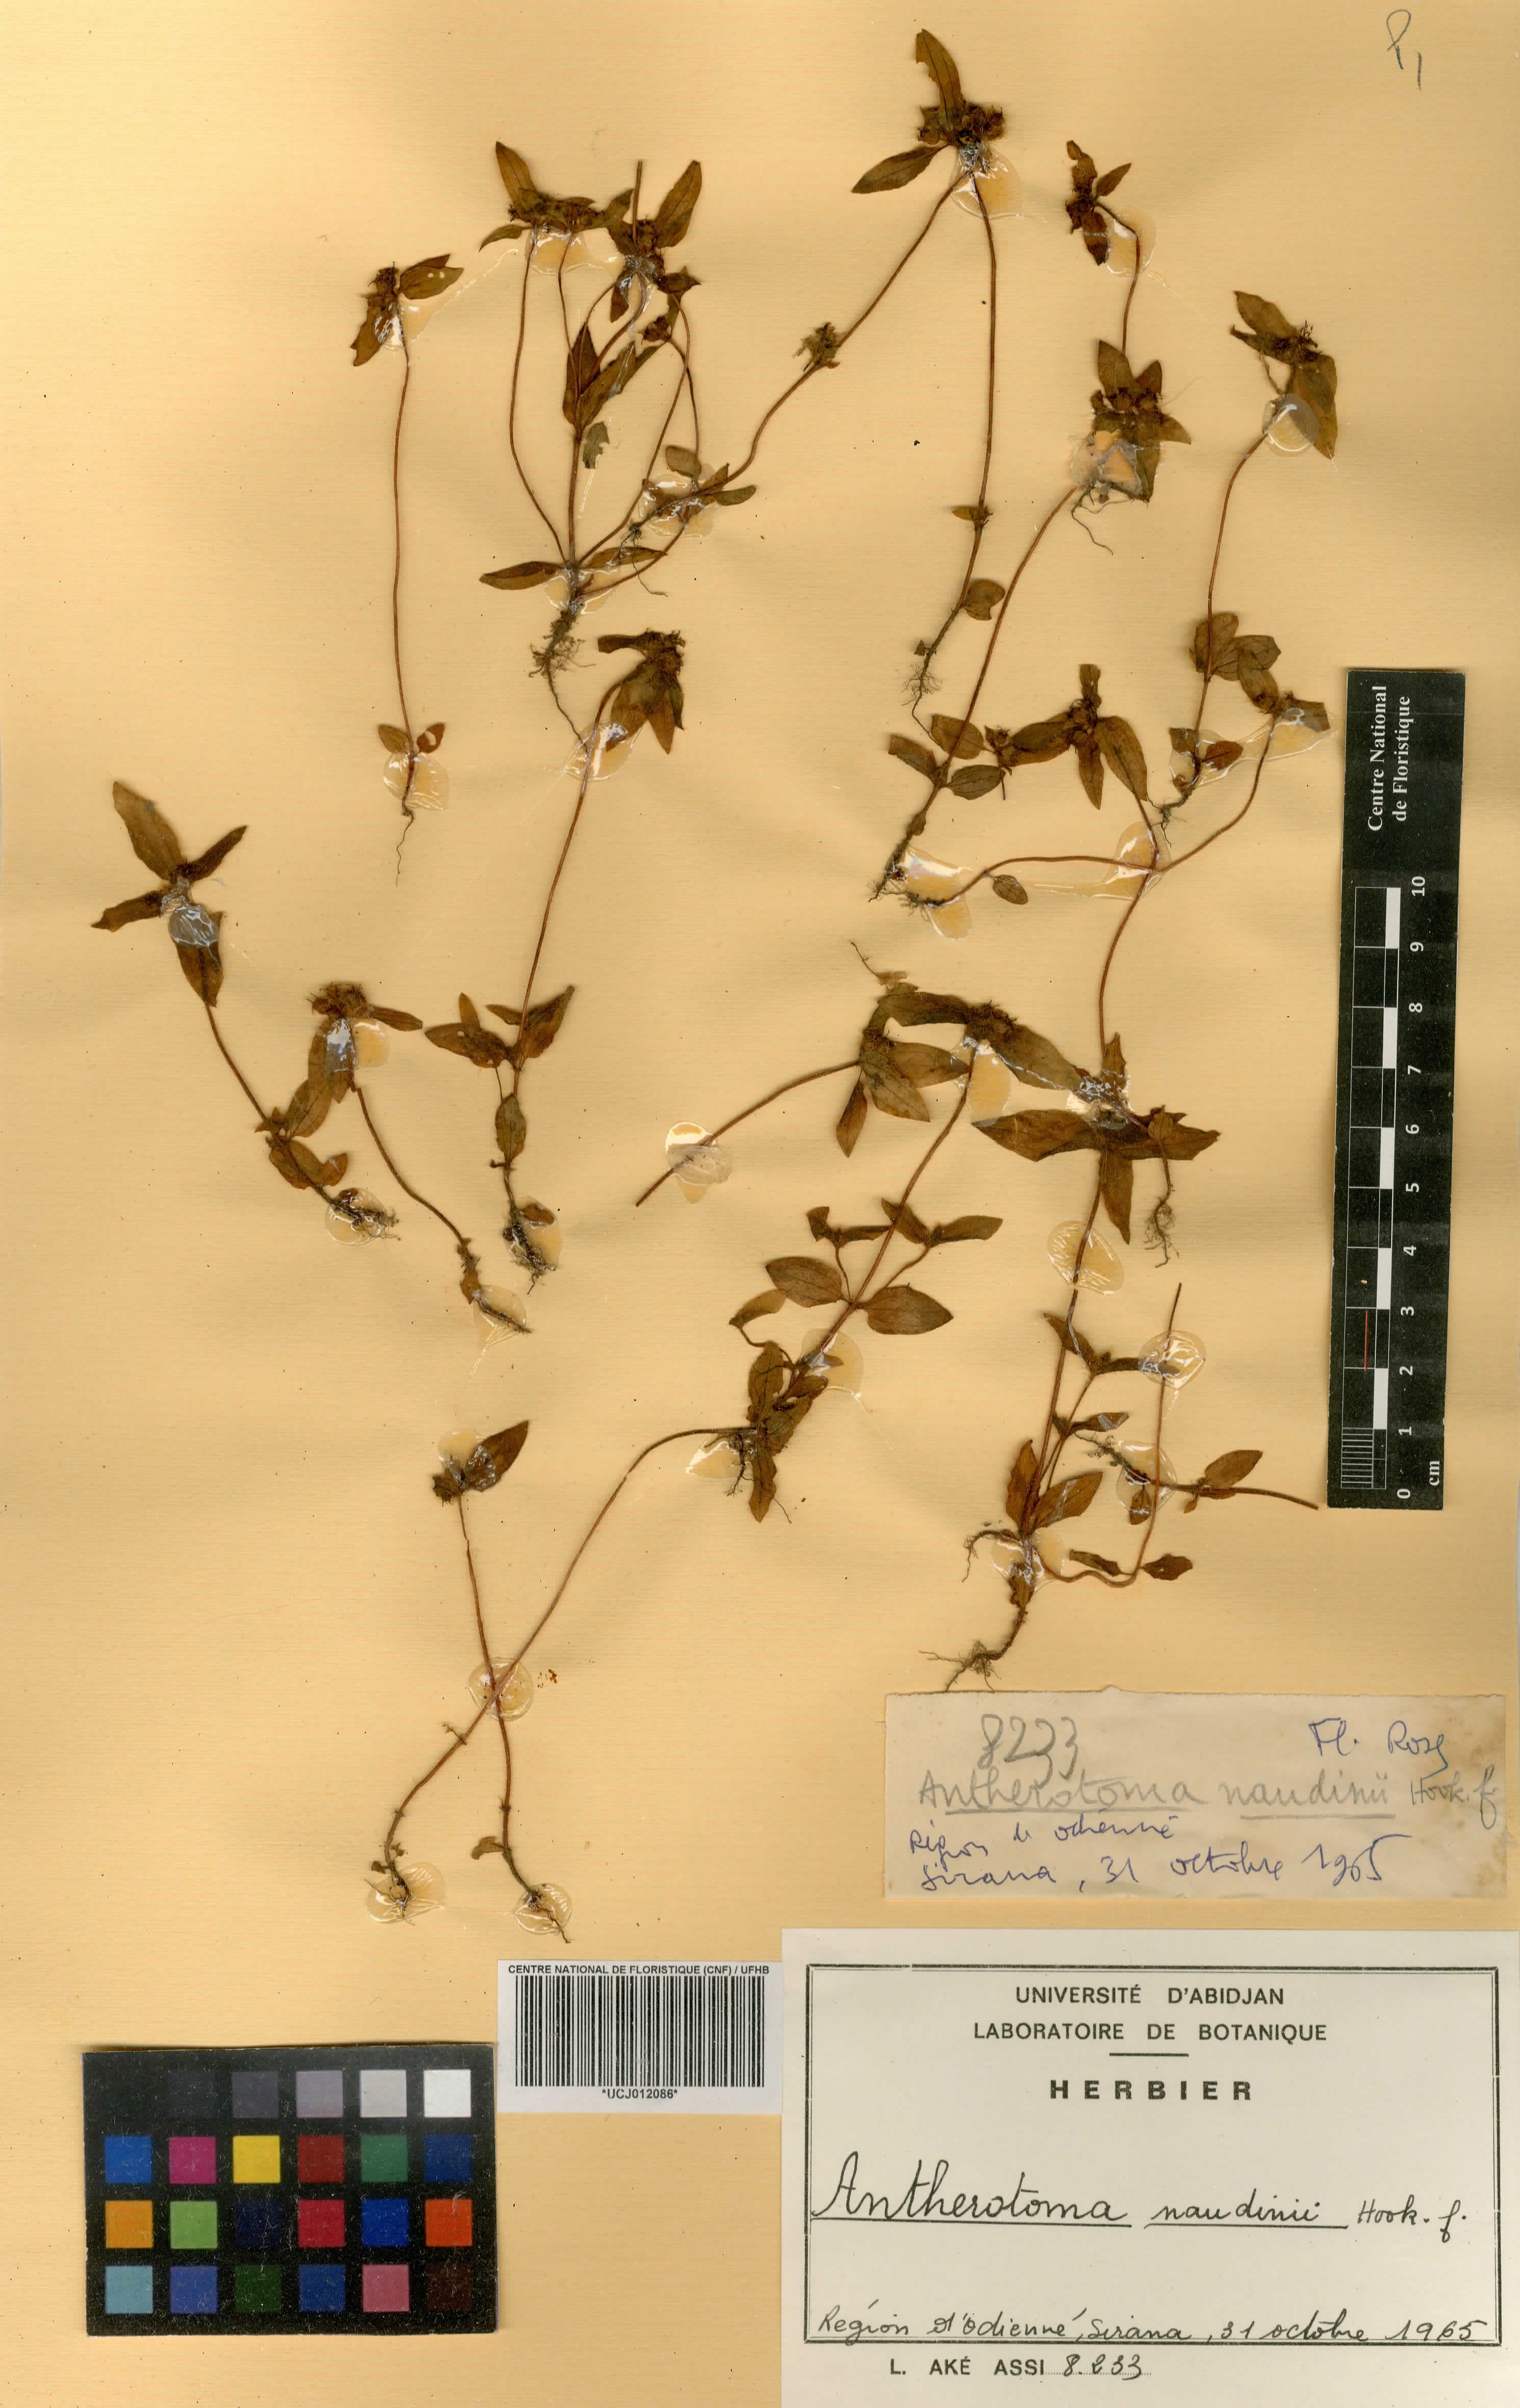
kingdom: Plantae
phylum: Tracheophyta
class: Magnoliopsida
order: Myrtales
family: Melastomataceae
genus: Antherotoma
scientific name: Antherotoma naudinii
